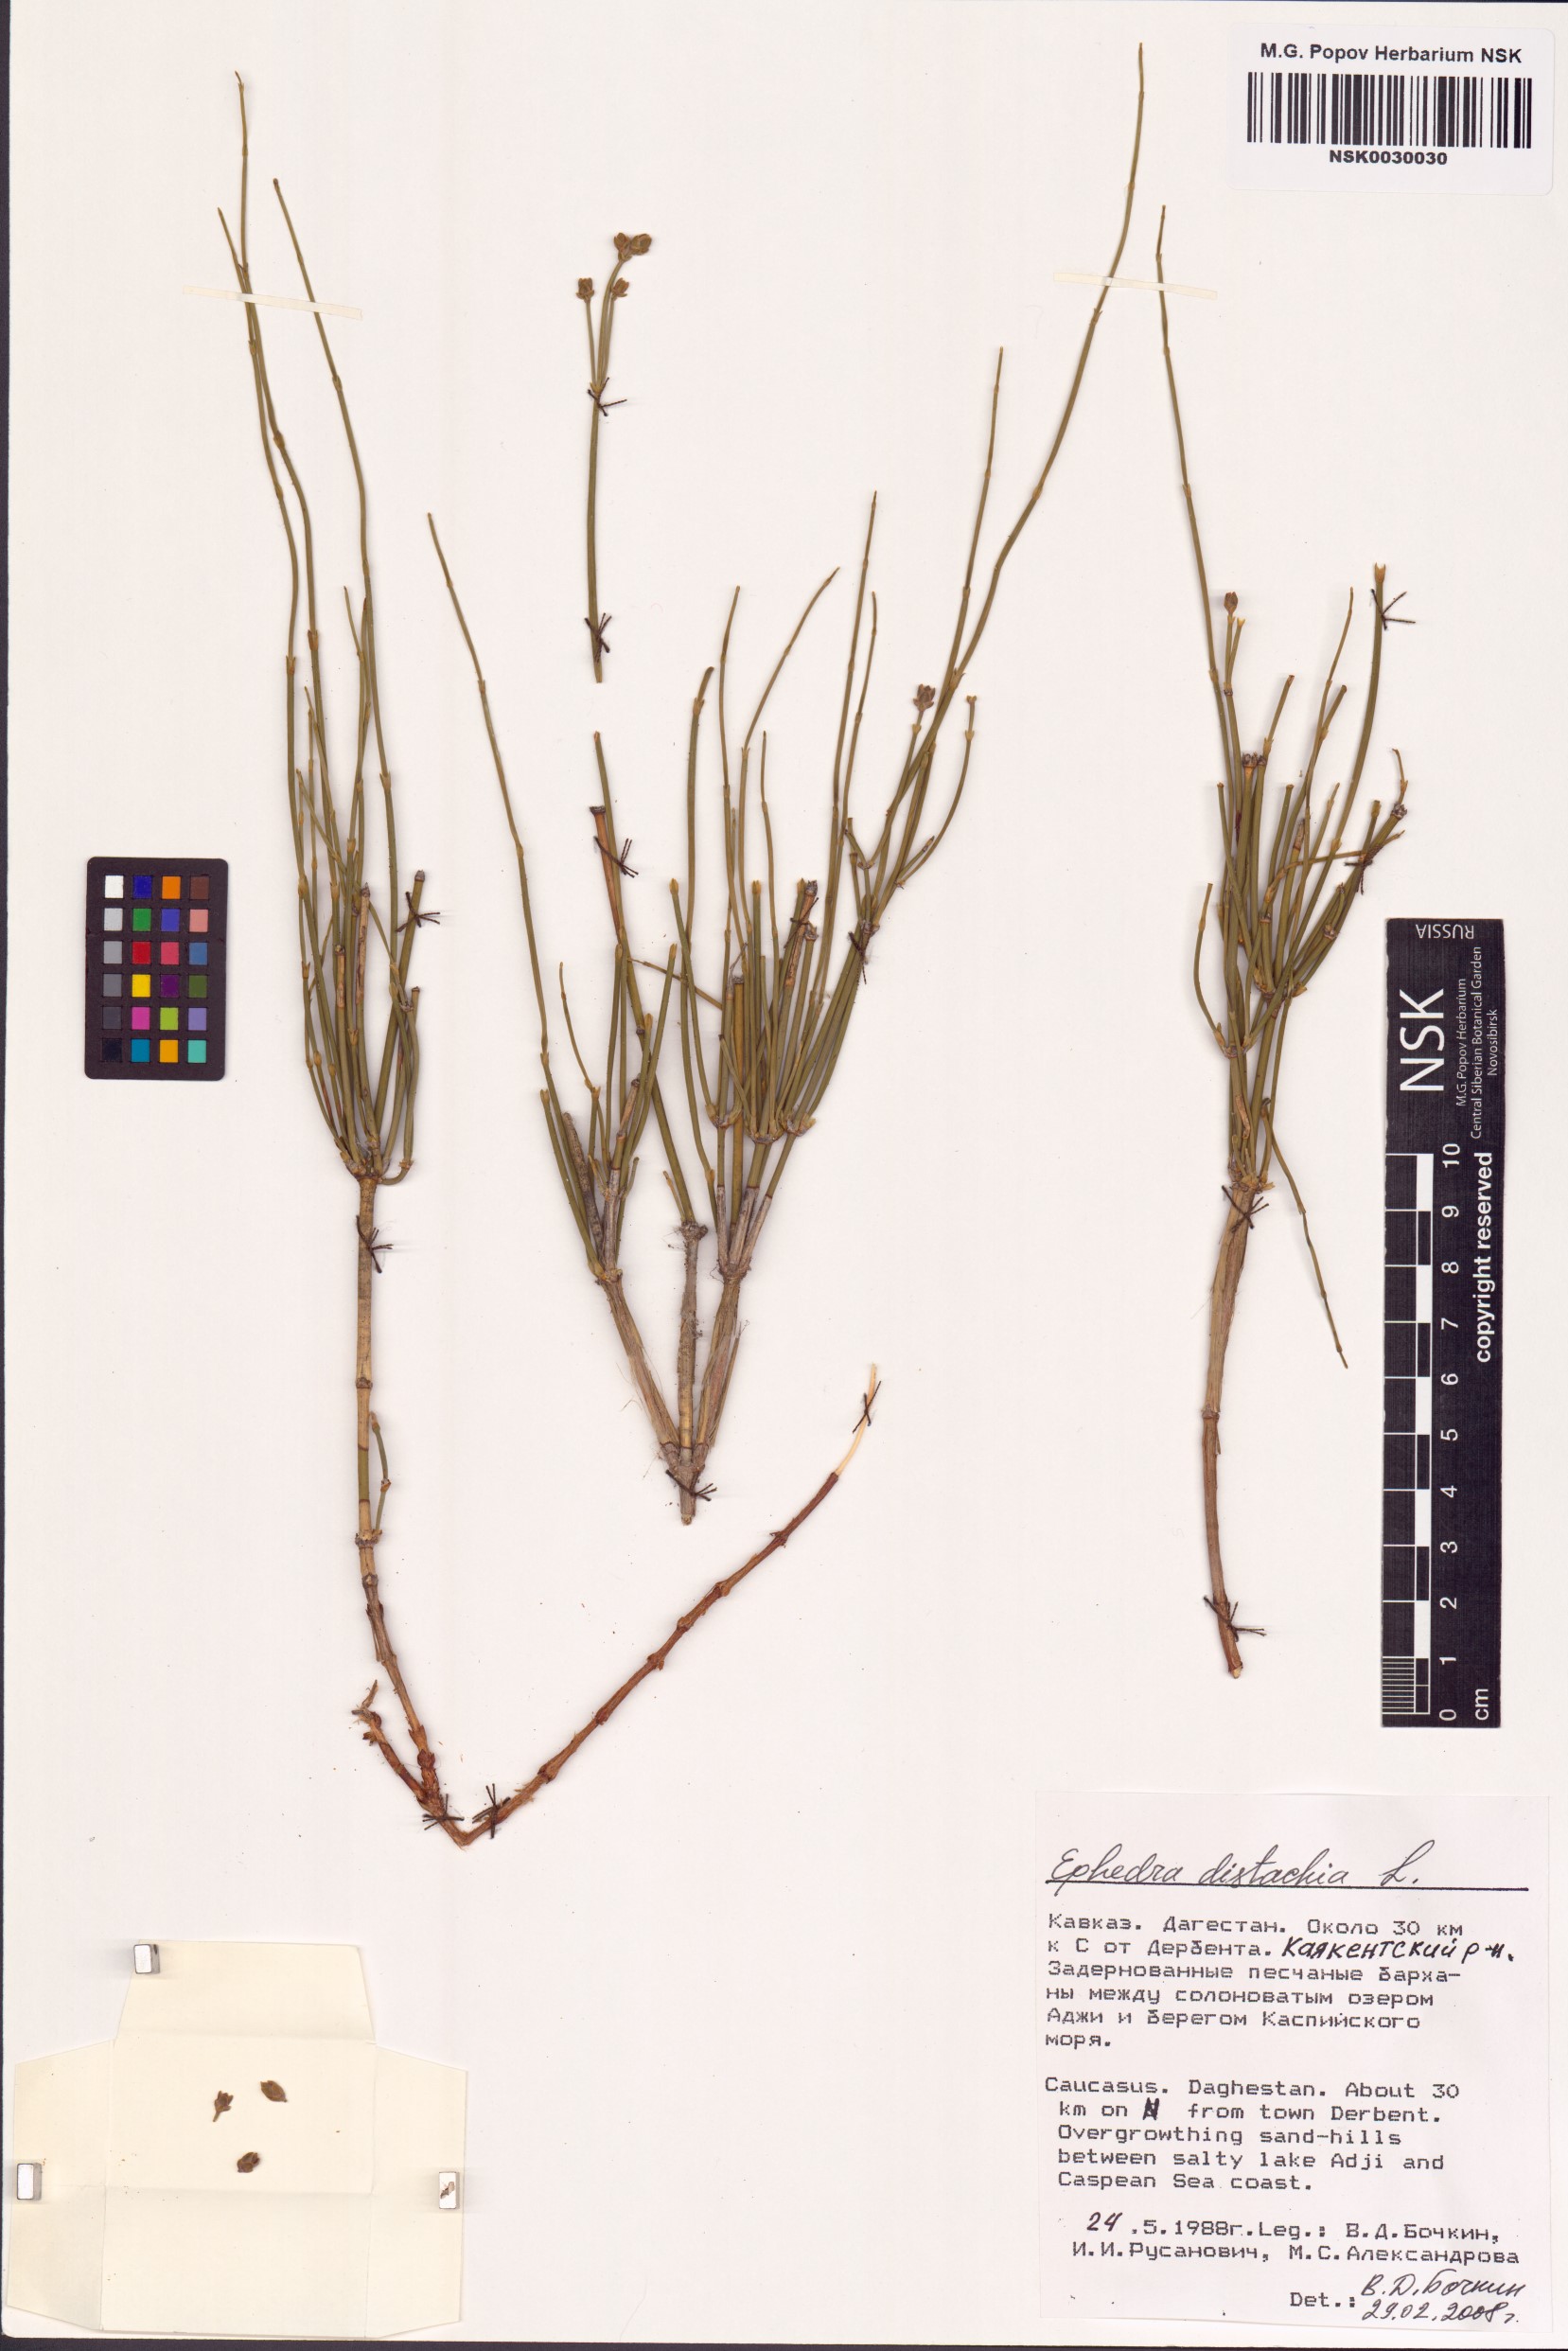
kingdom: Plantae
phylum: Tracheophyta
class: Gnetopsida
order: Ephedrales
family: Ephedraceae
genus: Ephedra
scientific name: Ephedra distachya
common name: Sea grape
